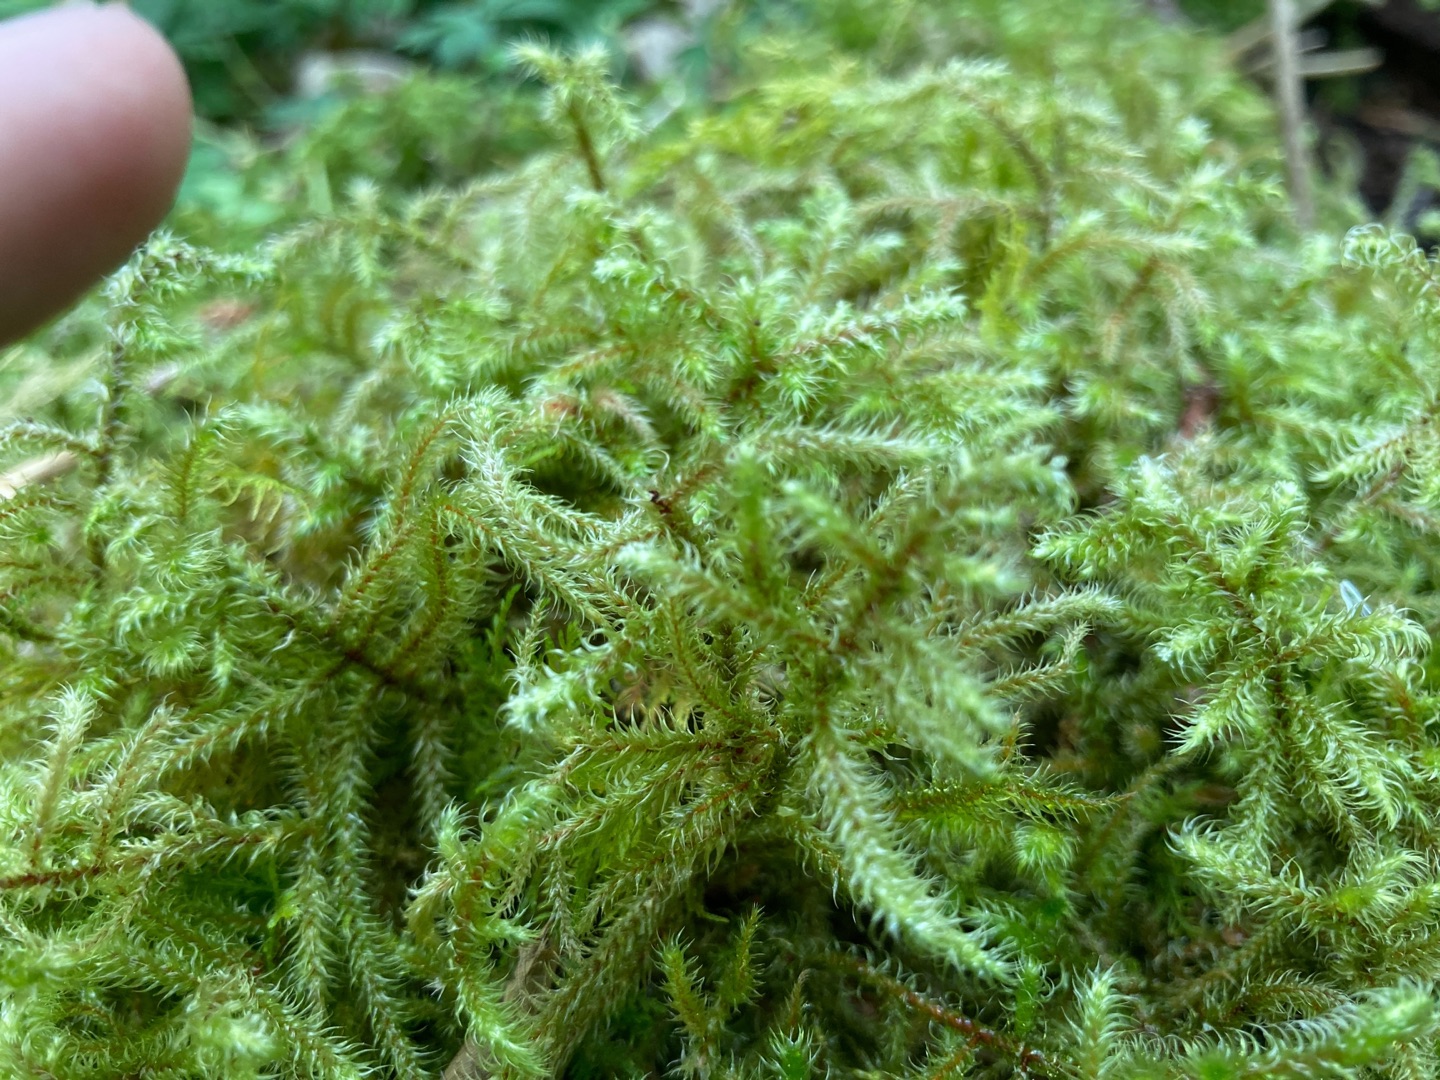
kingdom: Plantae
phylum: Bryophyta
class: Bryopsida
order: Hypnales
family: Hylocomiaceae
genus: Rhytidiadelphus
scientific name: Rhytidiadelphus loreus
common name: Ulvefod-kransemos
